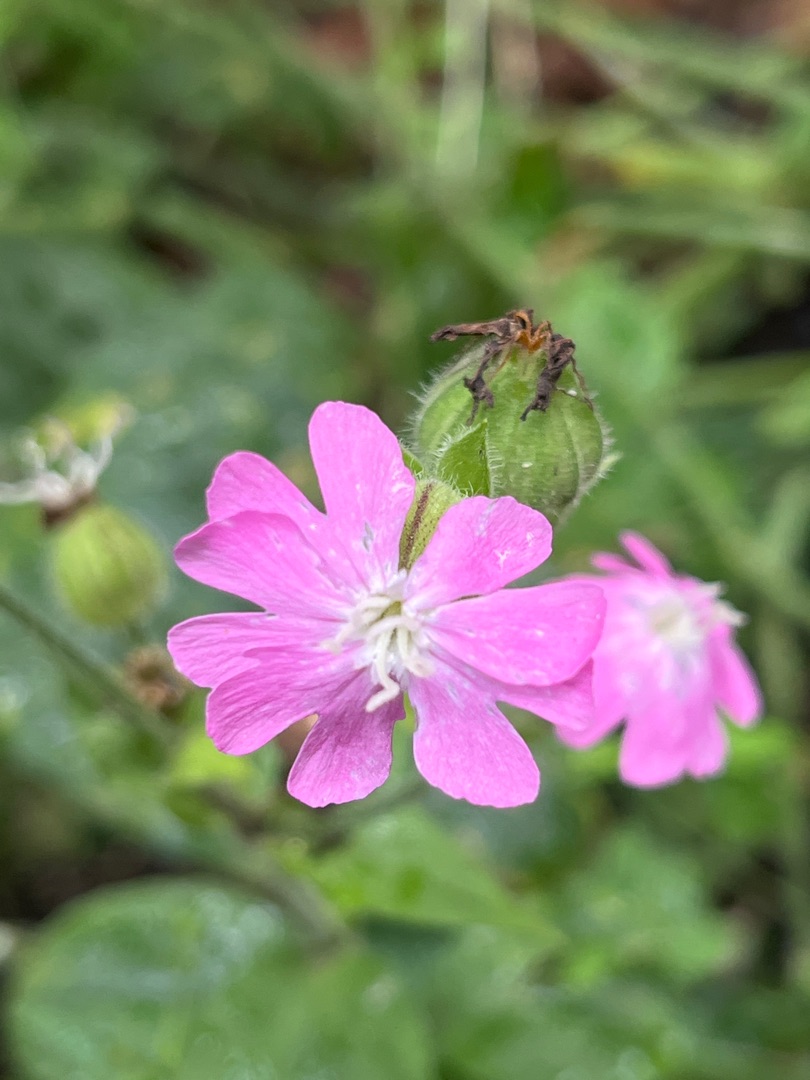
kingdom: Plantae
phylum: Tracheophyta
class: Magnoliopsida
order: Caryophyllales
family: Caryophyllaceae
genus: Silene
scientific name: Silene dioica
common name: Dagpragtstjerne
